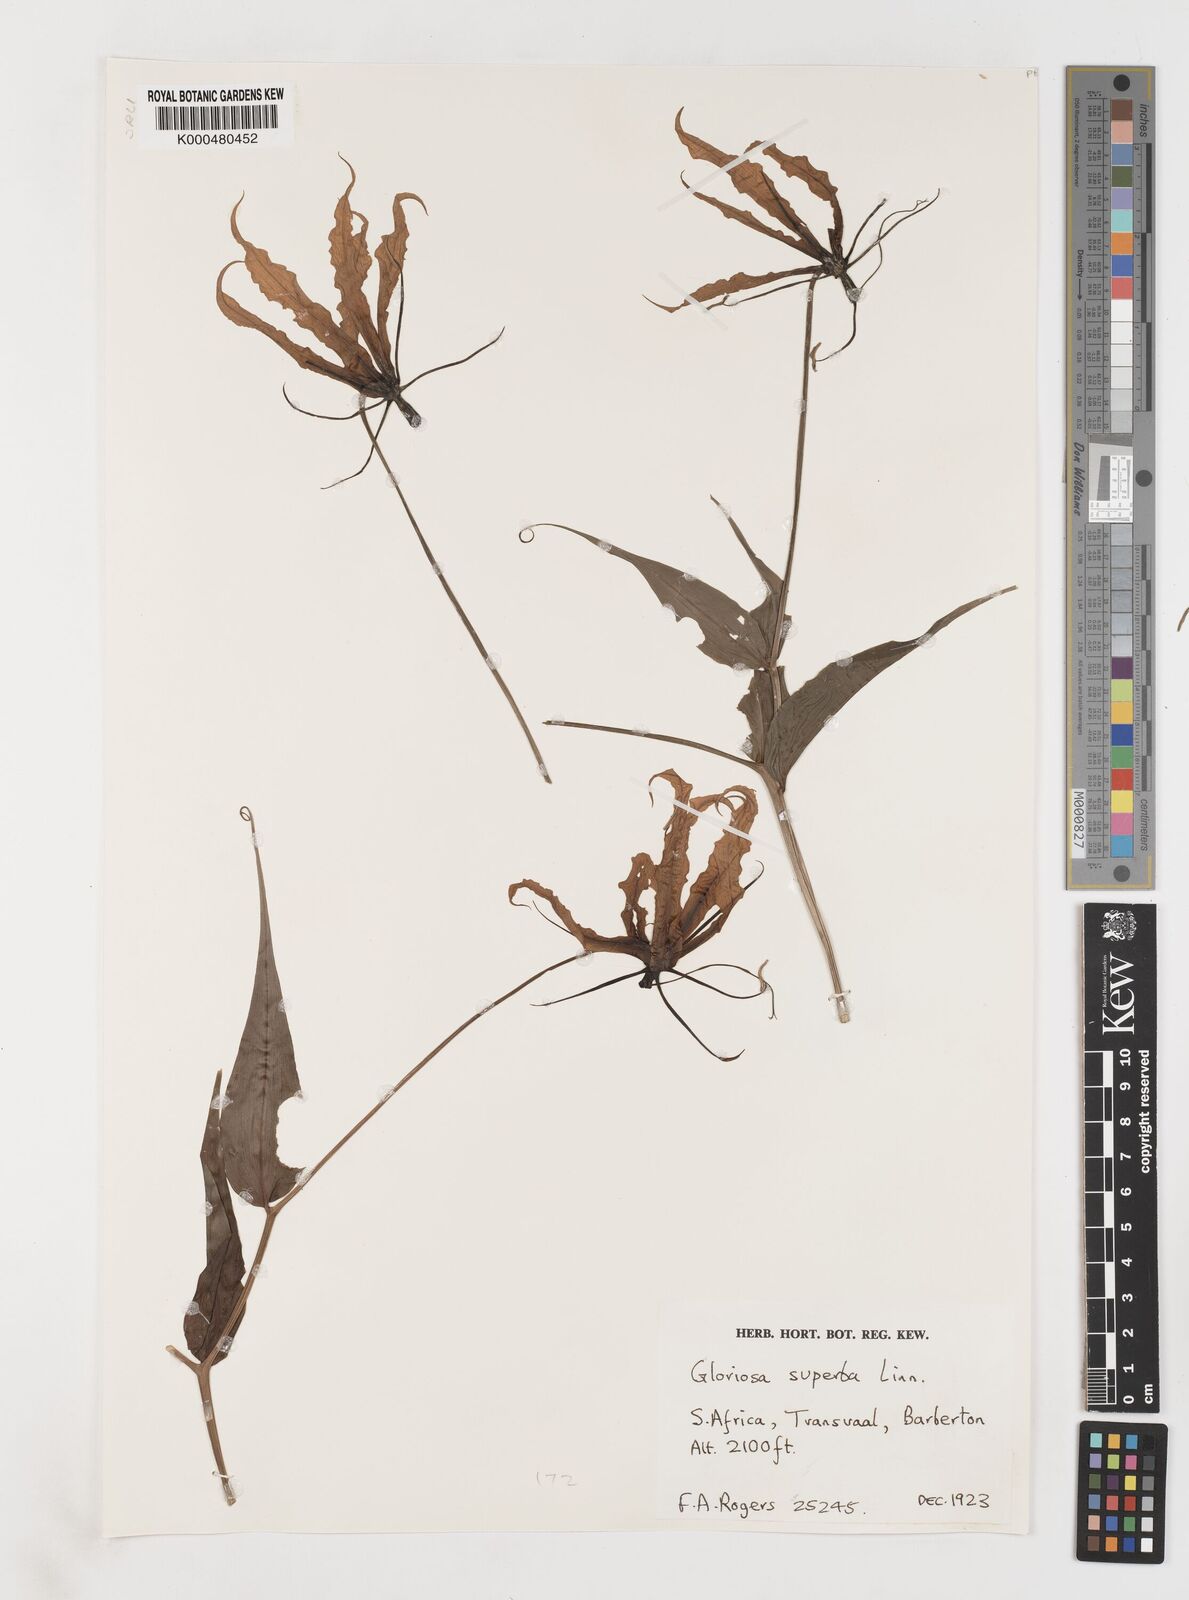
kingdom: Plantae
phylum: Tracheophyta
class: Liliopsida
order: Liliales
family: Colchicaceae
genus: Gloriosa
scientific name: Gloriosa superba
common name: Flame lily
